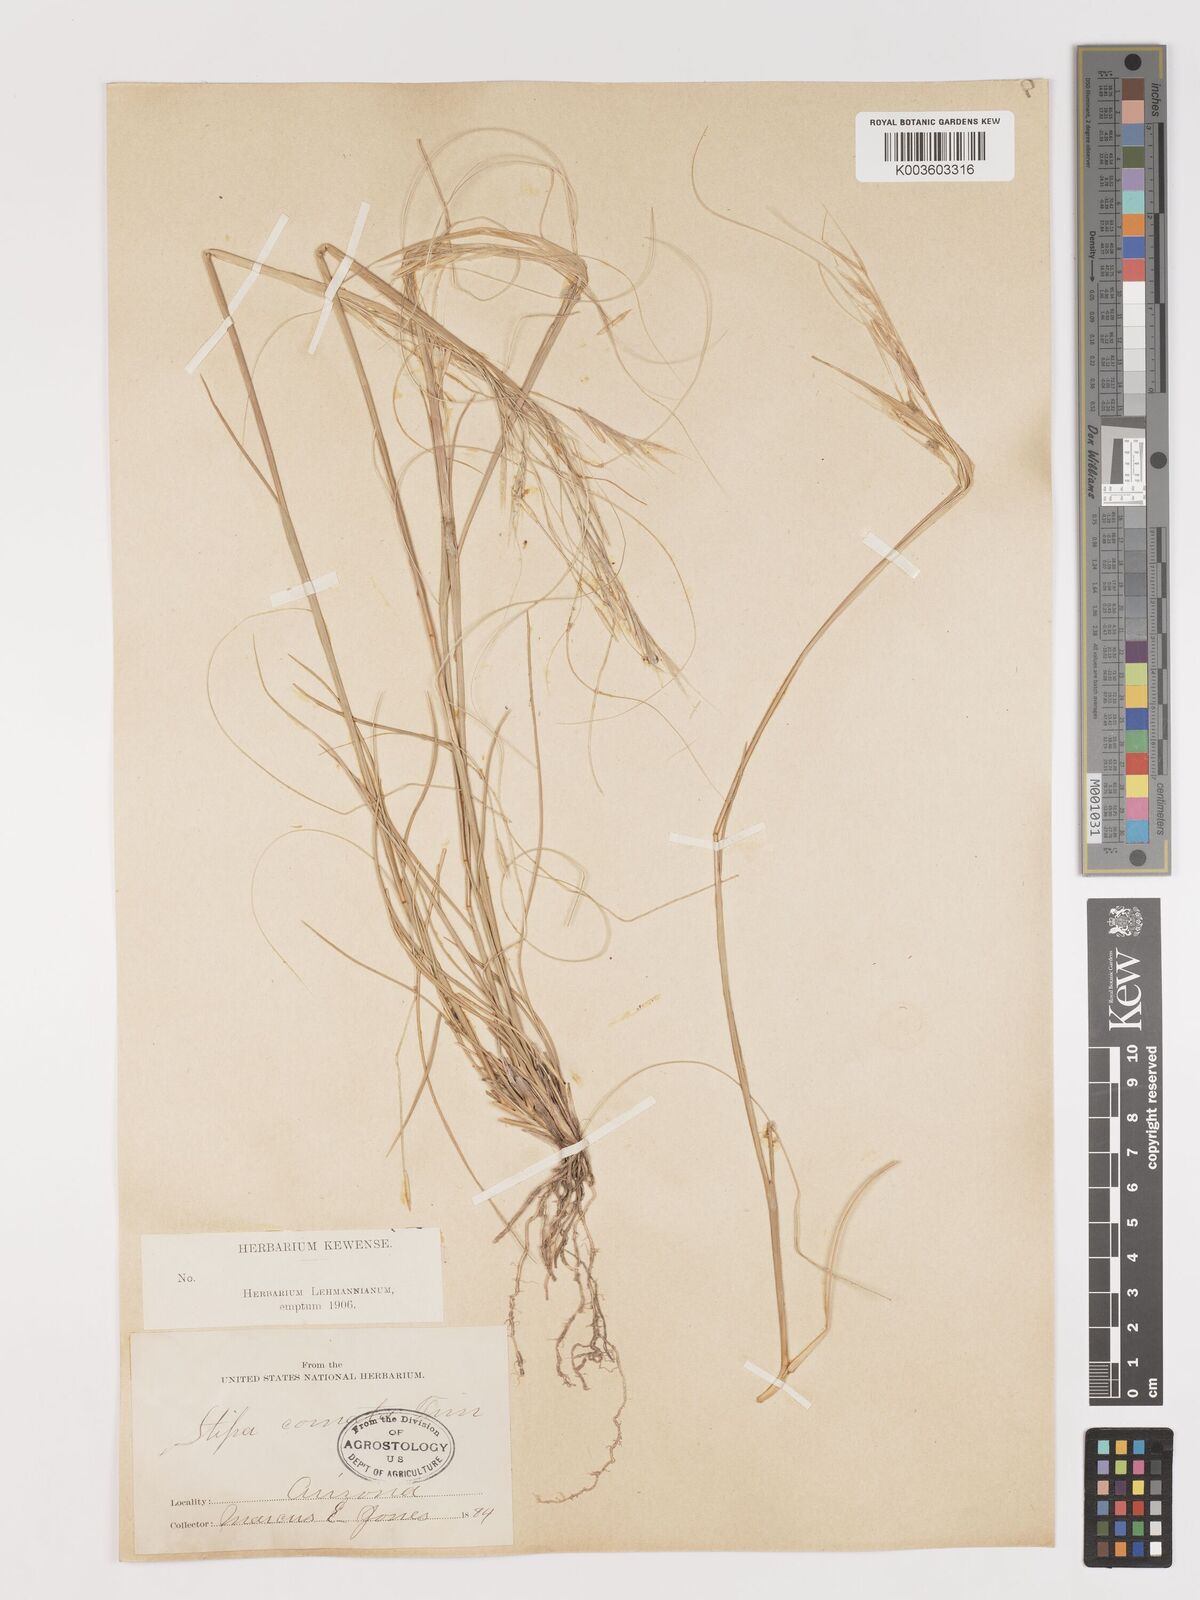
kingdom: Plantae
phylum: Tracheophyta
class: Liliopsida
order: Poales
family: Poaceae
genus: Hesperostipa
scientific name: Hesperostipa comata
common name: Needle-and-thread grass
